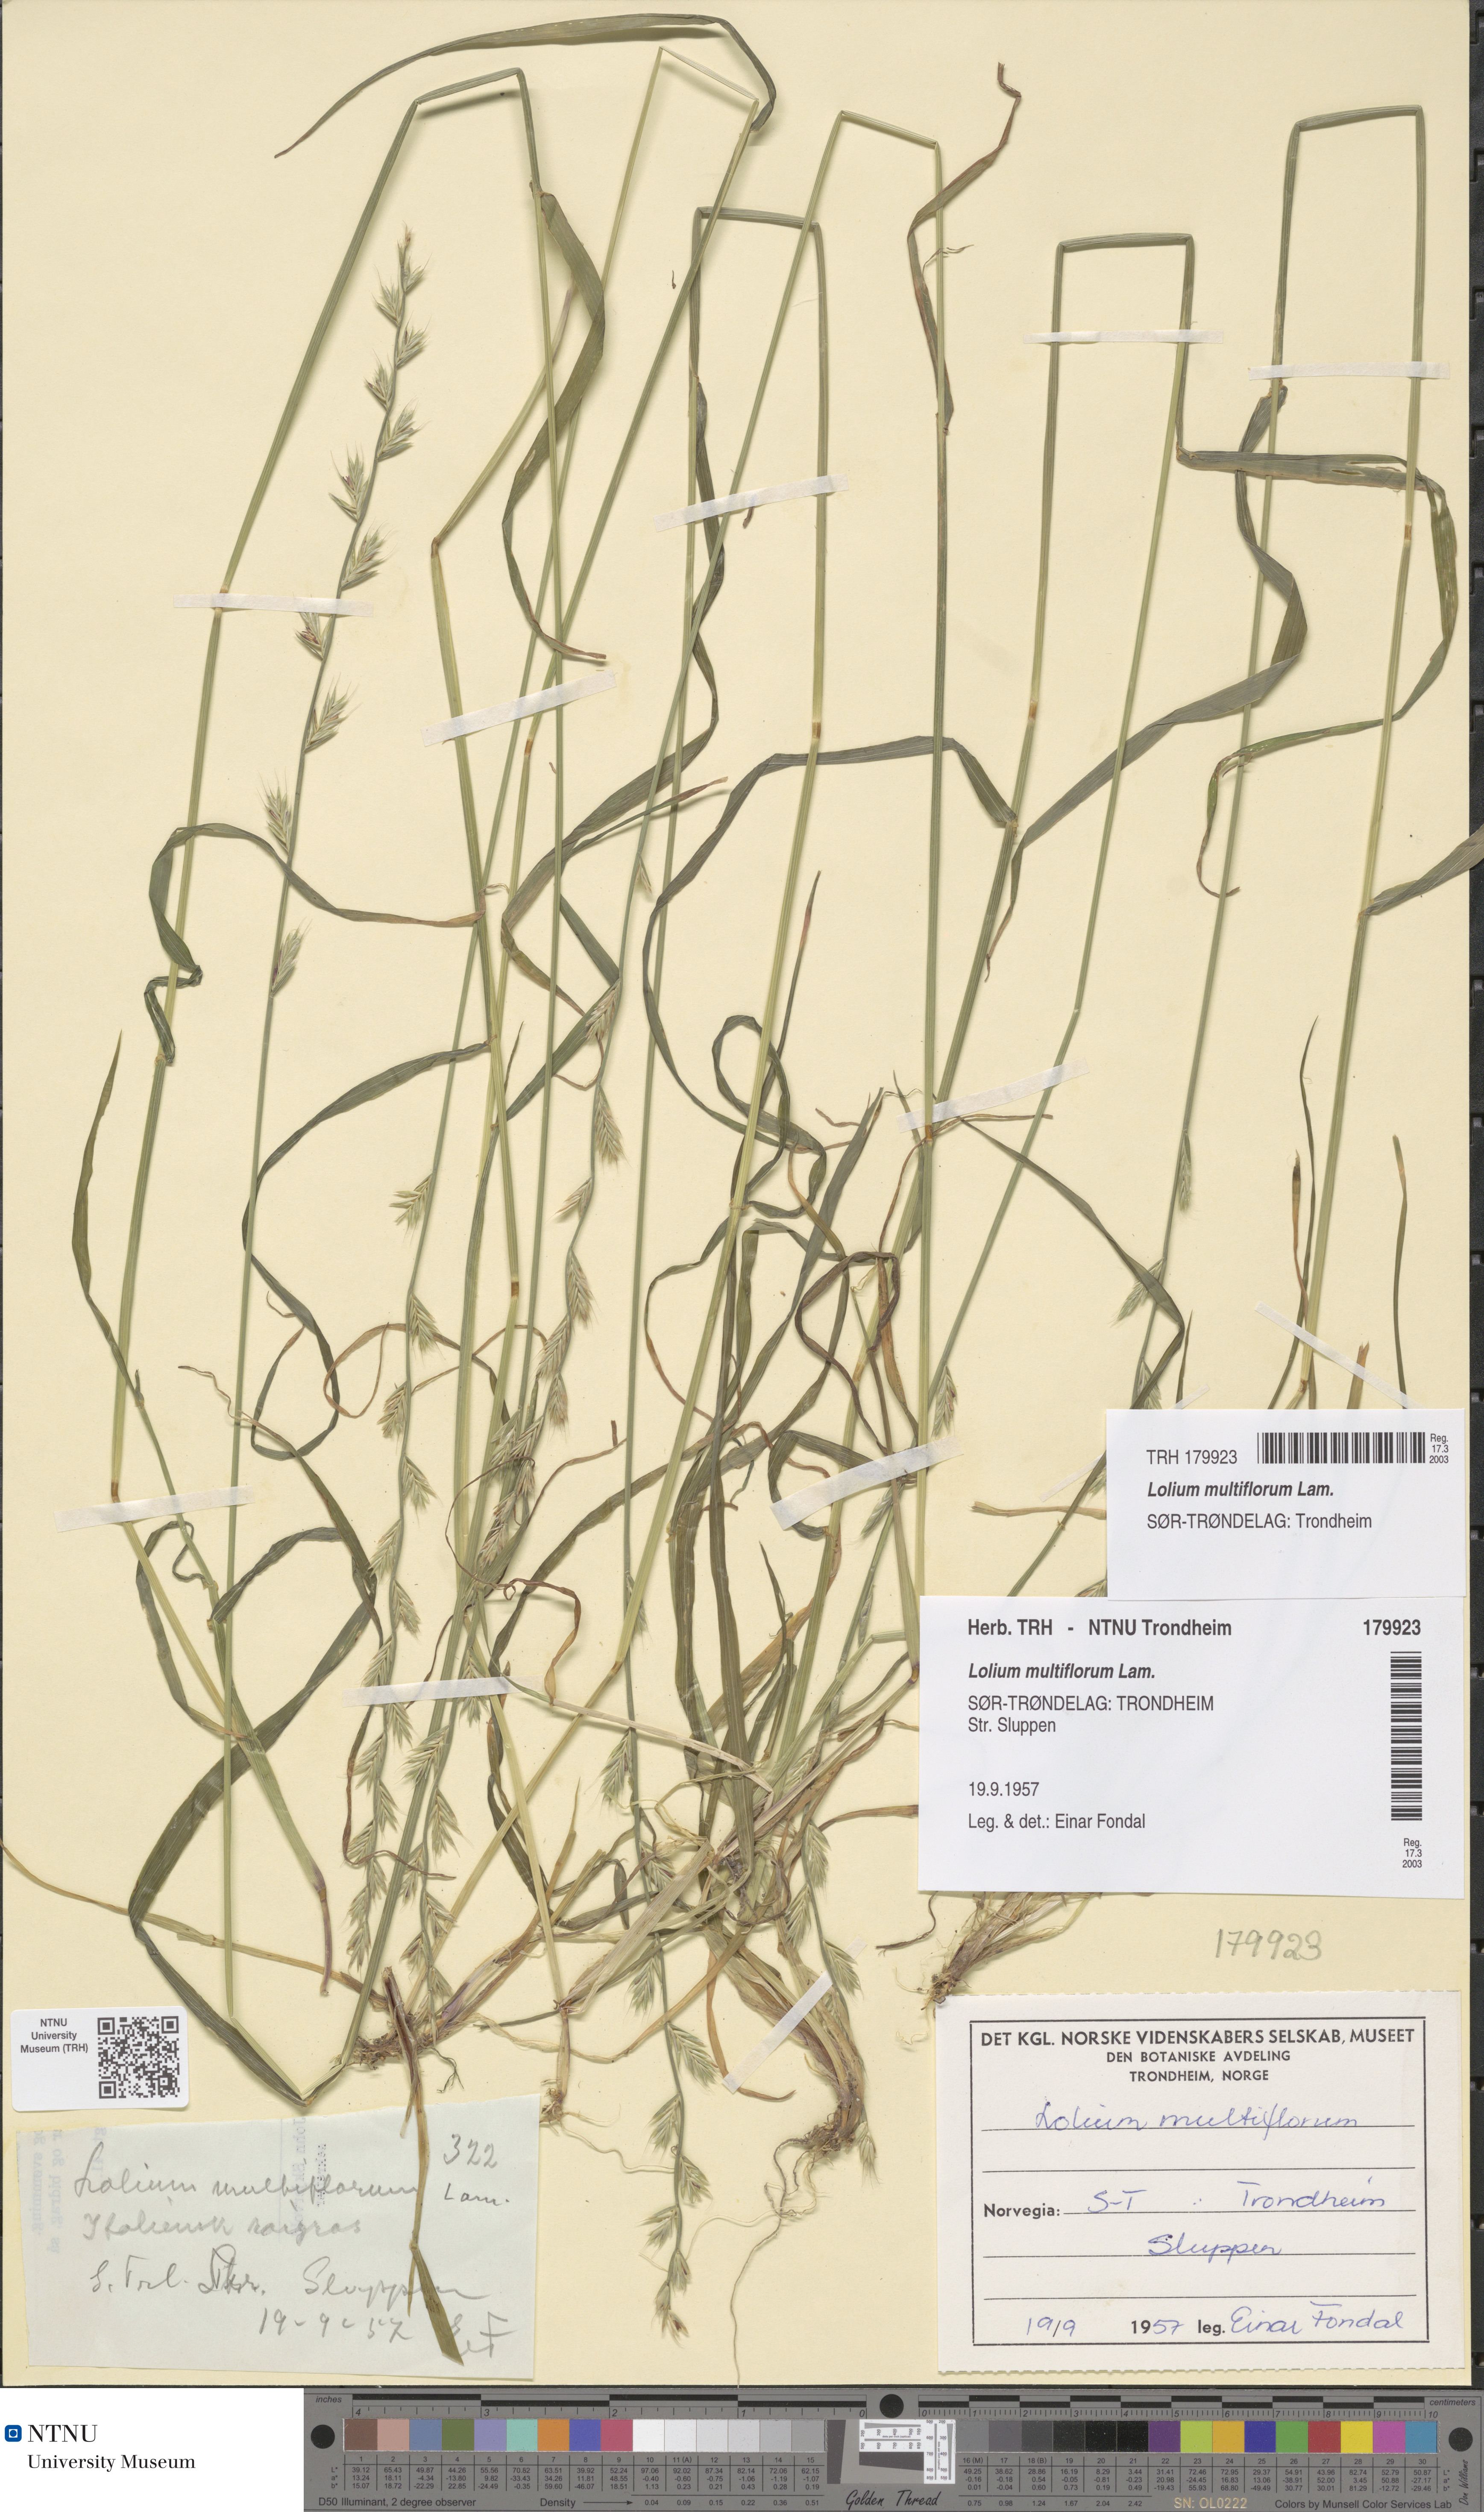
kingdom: Plantae
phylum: Tracheophyta
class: Liliopsida
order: Poales
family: Poaceae
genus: Lolium
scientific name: Lolium multiflorum
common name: Annual ryegrass
